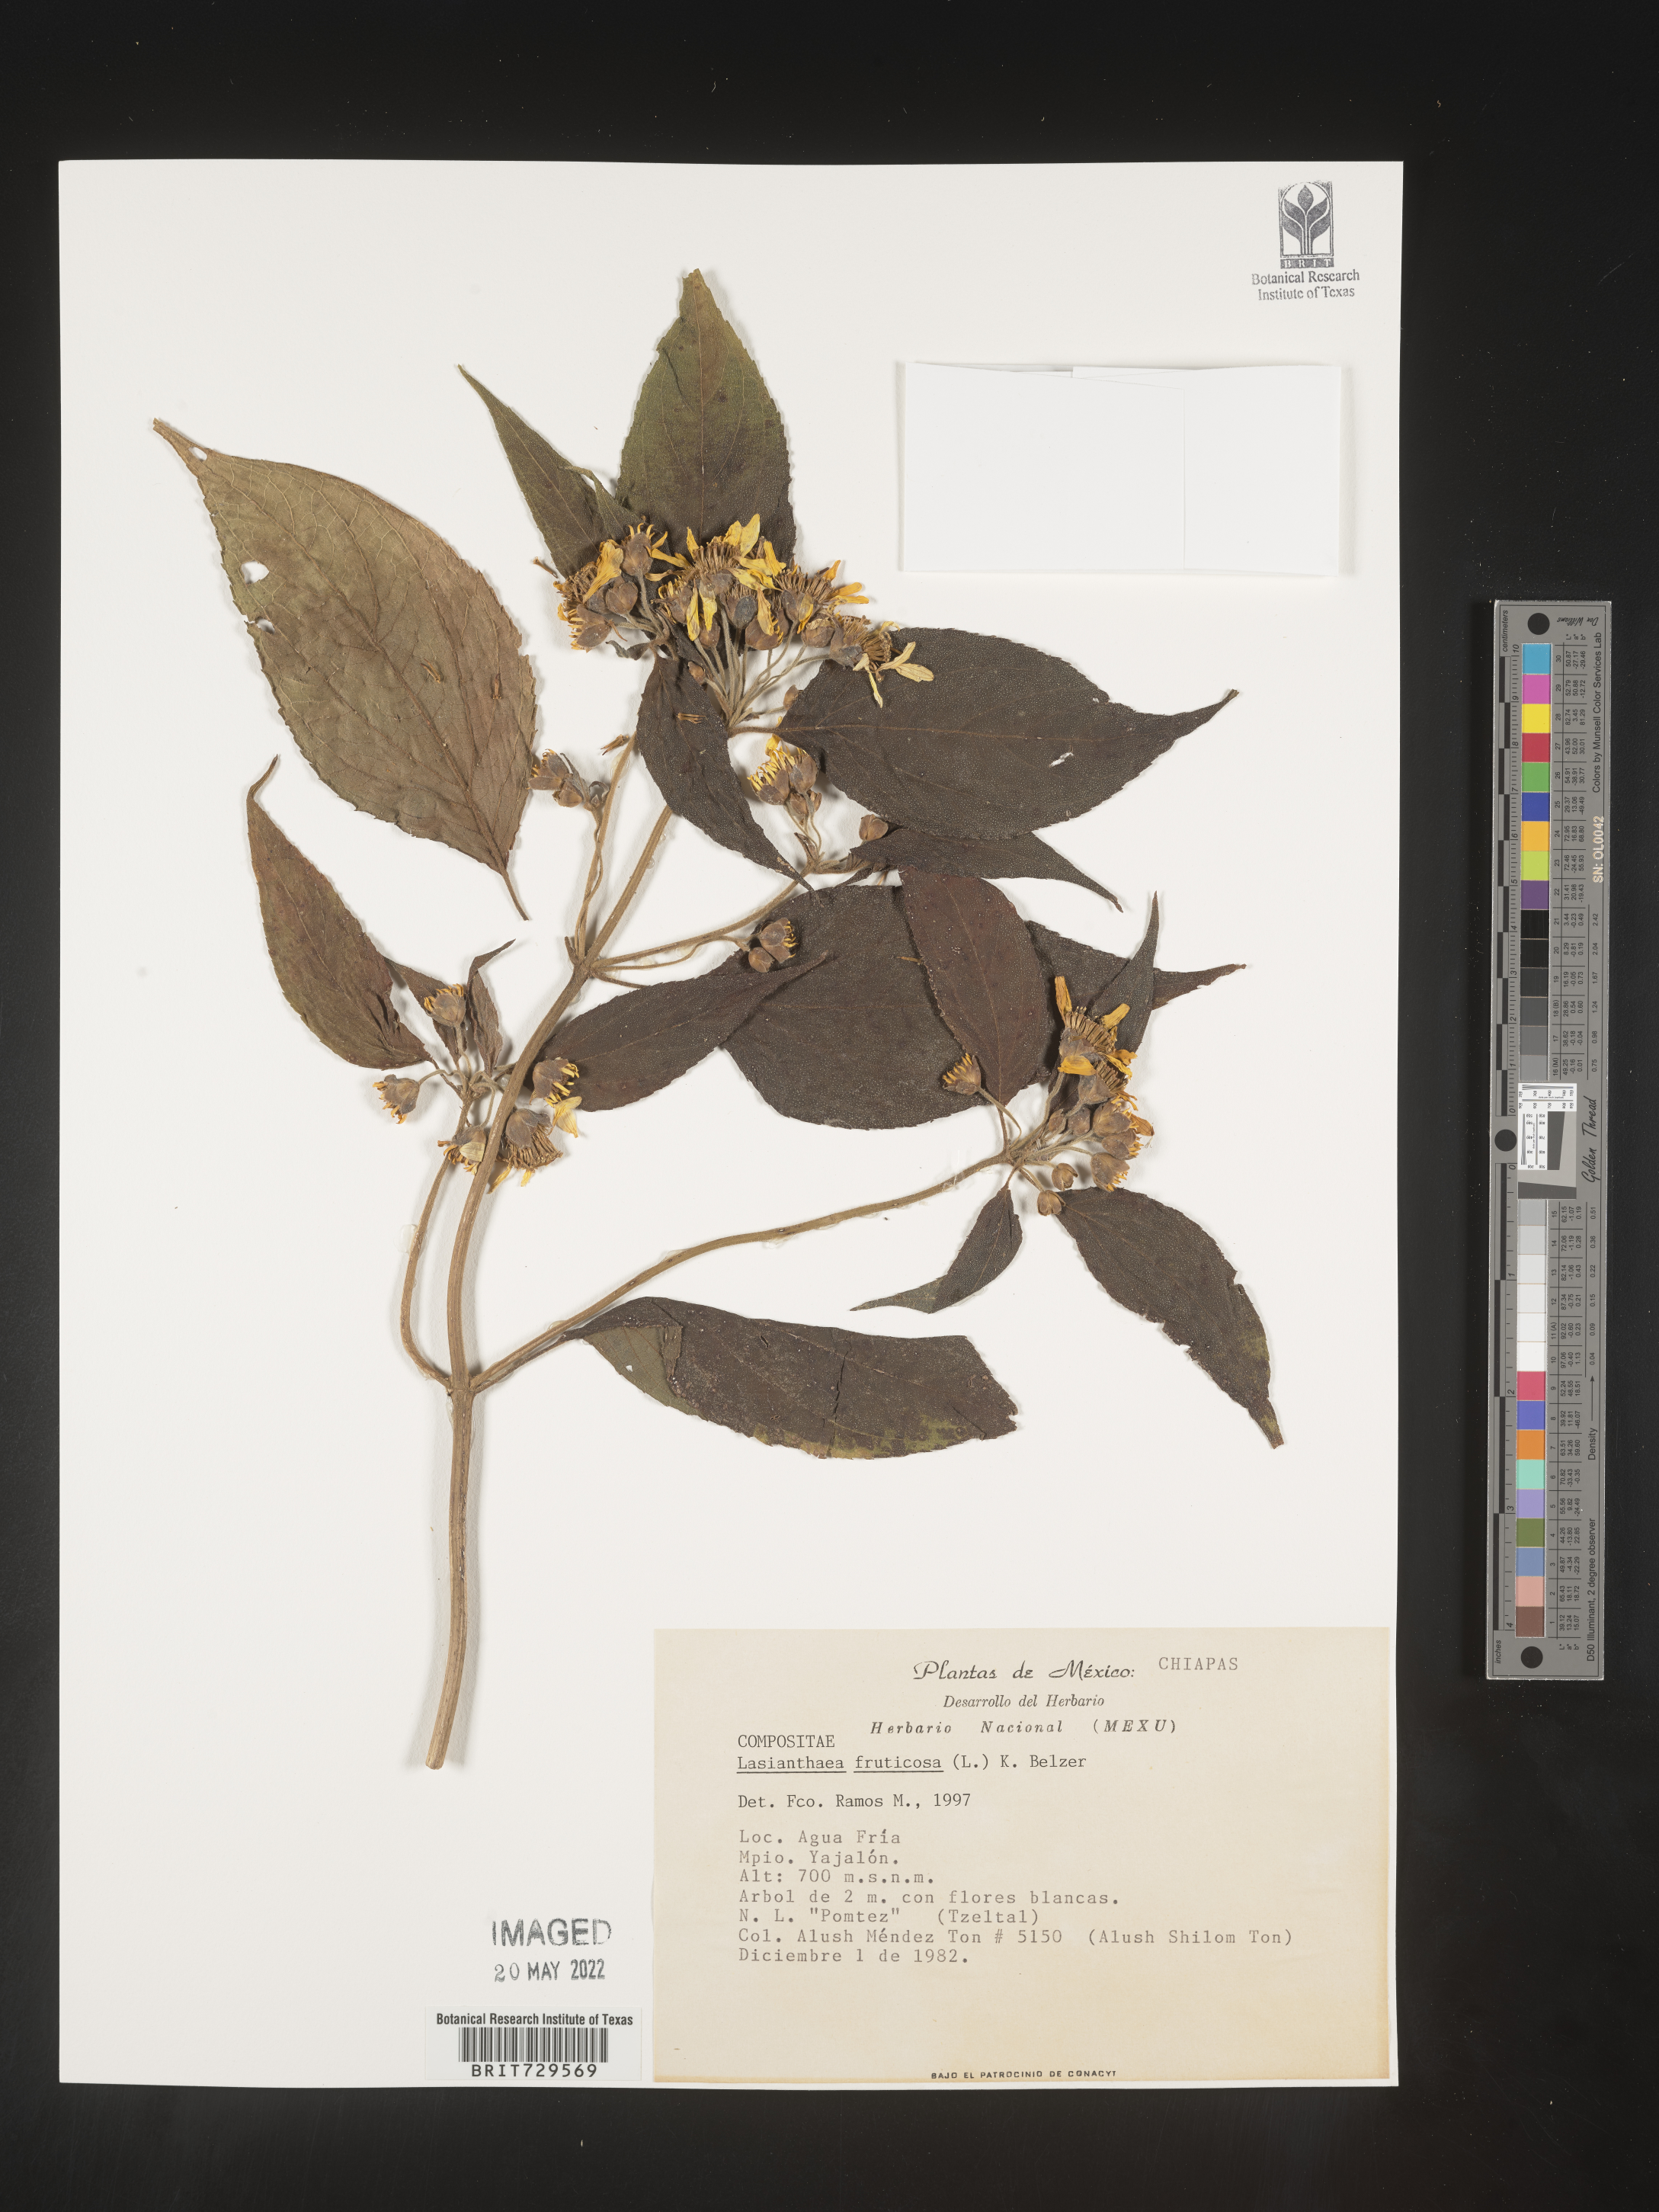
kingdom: Plantae
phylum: Tracheophyta
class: Magnoliopsida
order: Asterales
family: Asteraceae
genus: Lasianthaea
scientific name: Lasianthaea
